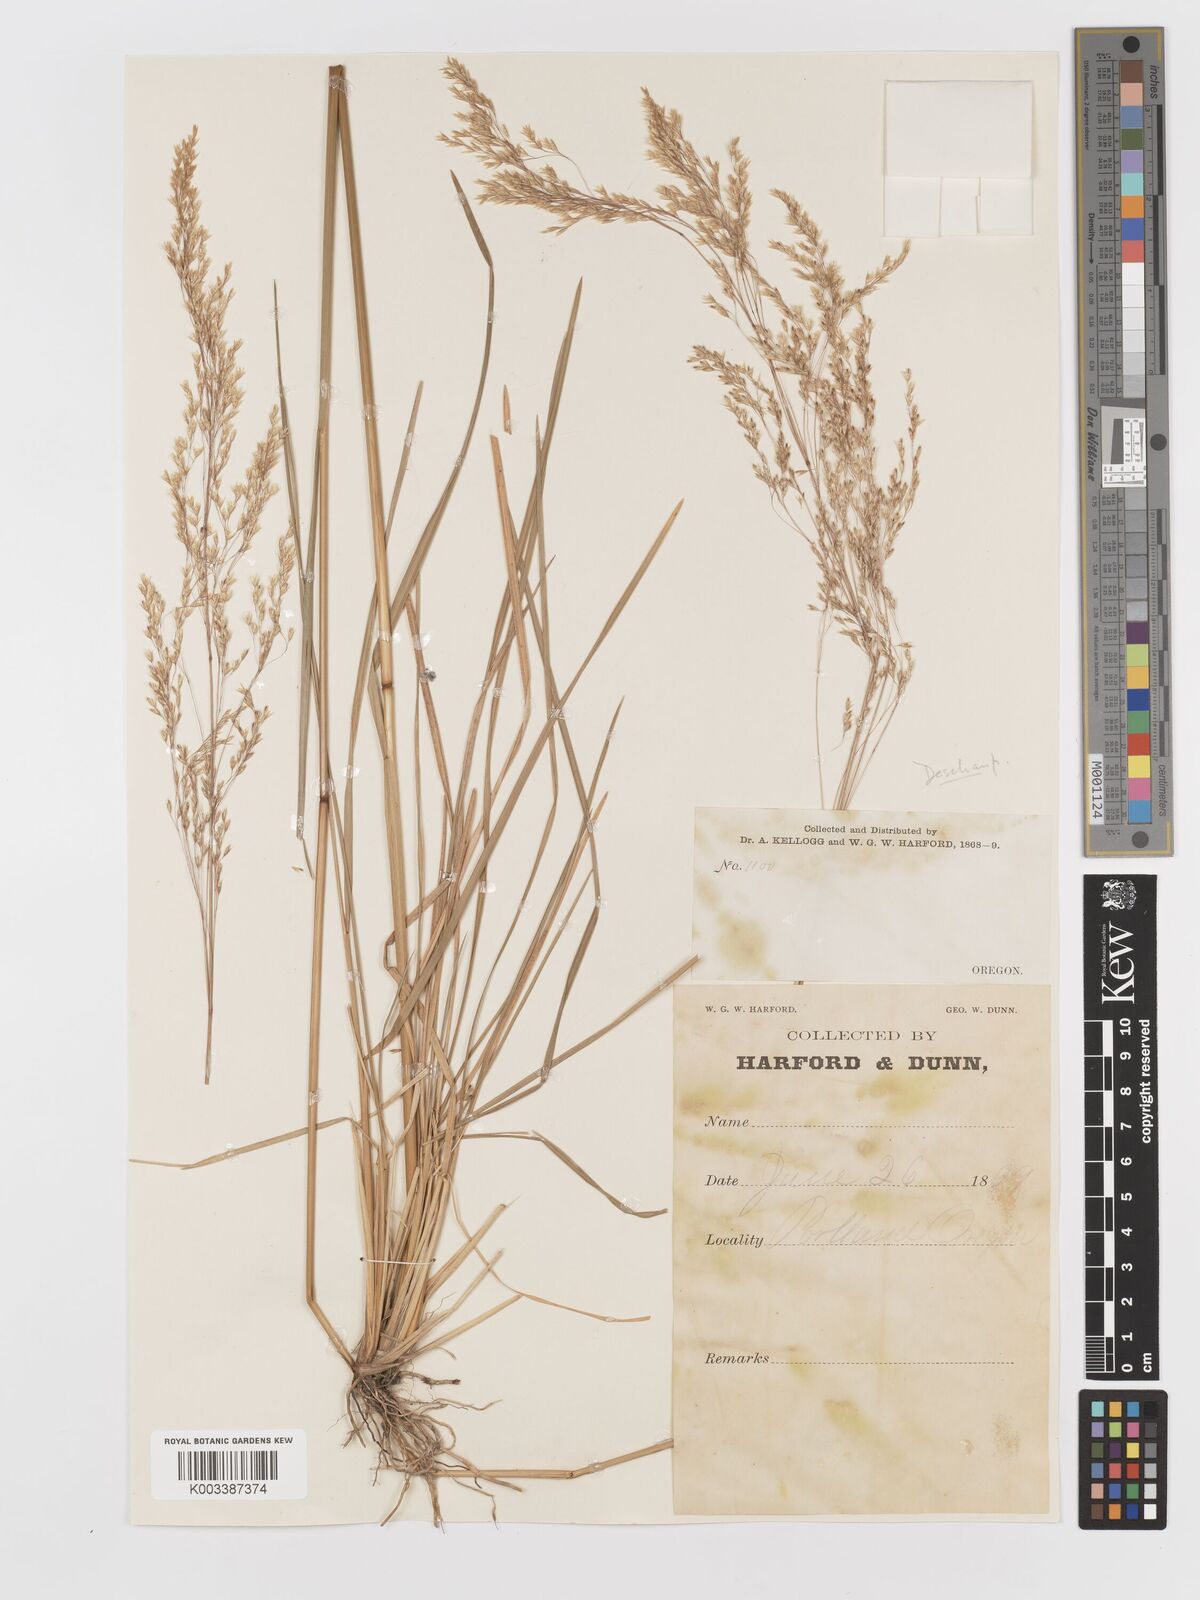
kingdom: Plantae
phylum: Tracheophyta
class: Liliopsida
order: Poales
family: Poaceae
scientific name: Poaceae
